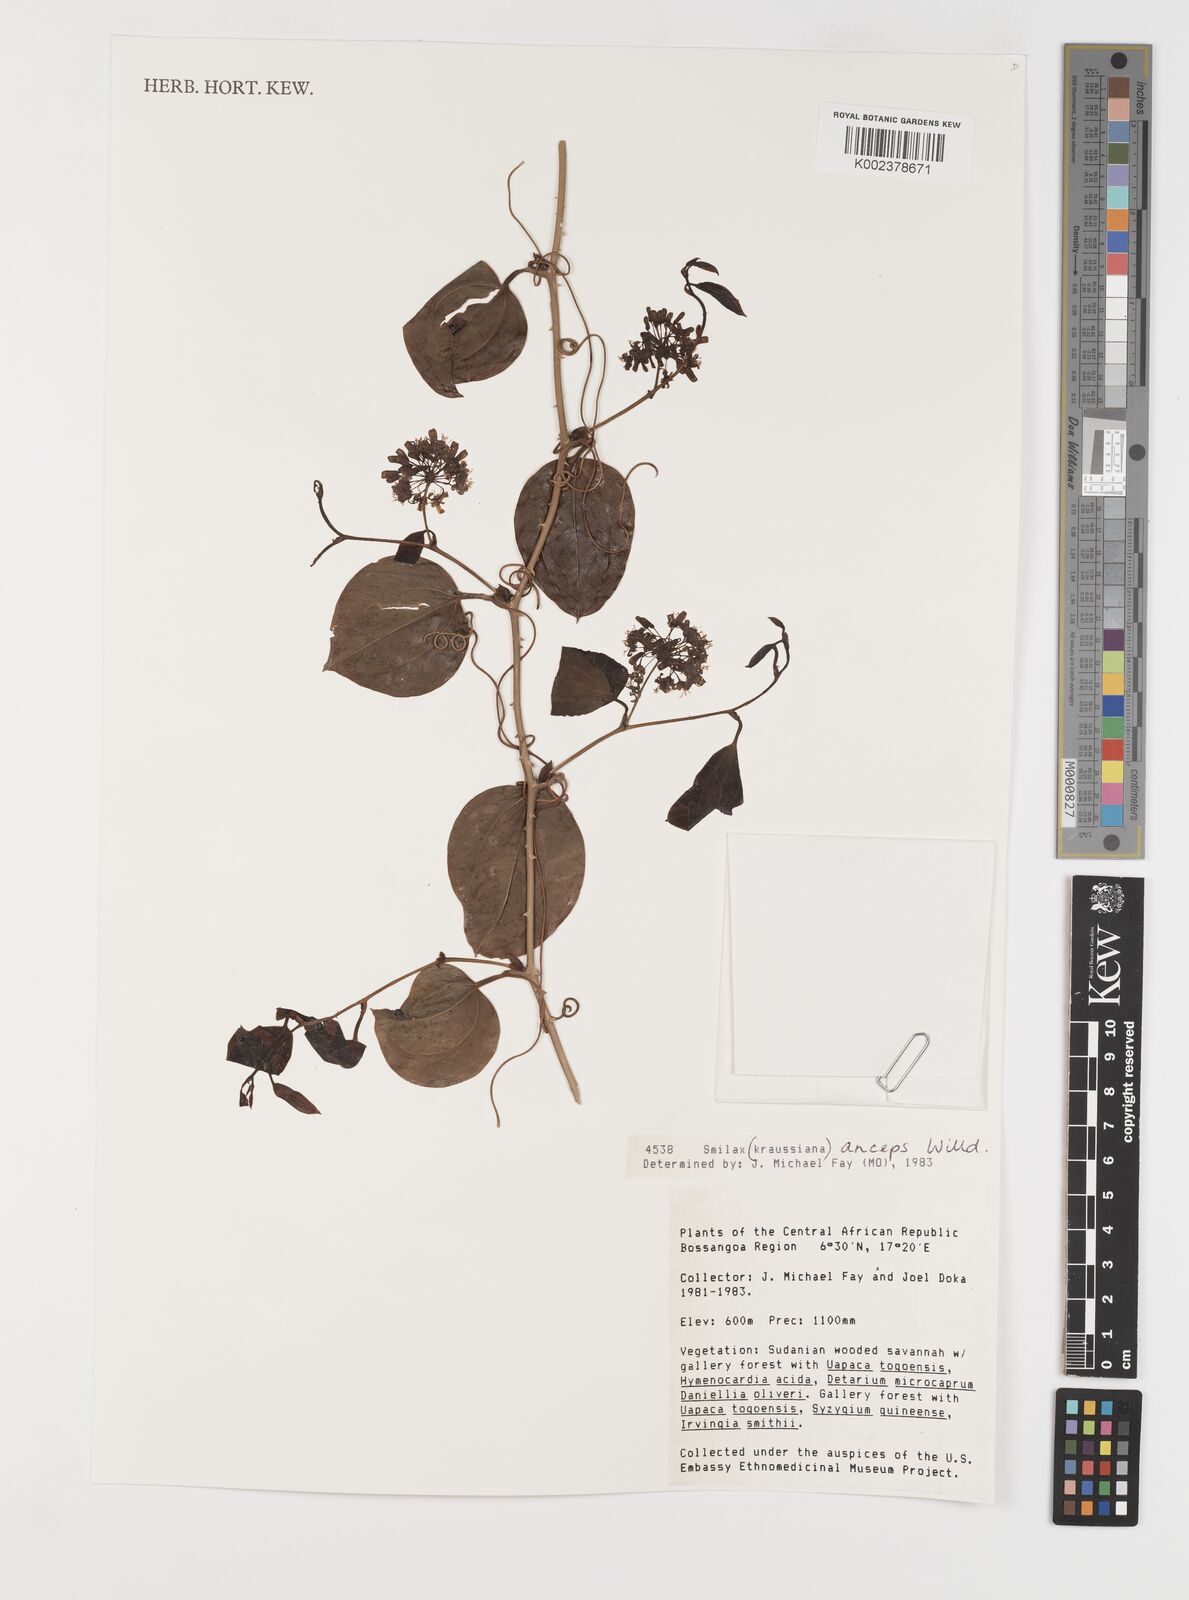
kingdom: Plantae
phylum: Tracheophyta
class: Liliopsida
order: Liliales
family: Smilacaceae
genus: Smilax
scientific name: Smilax anceps
